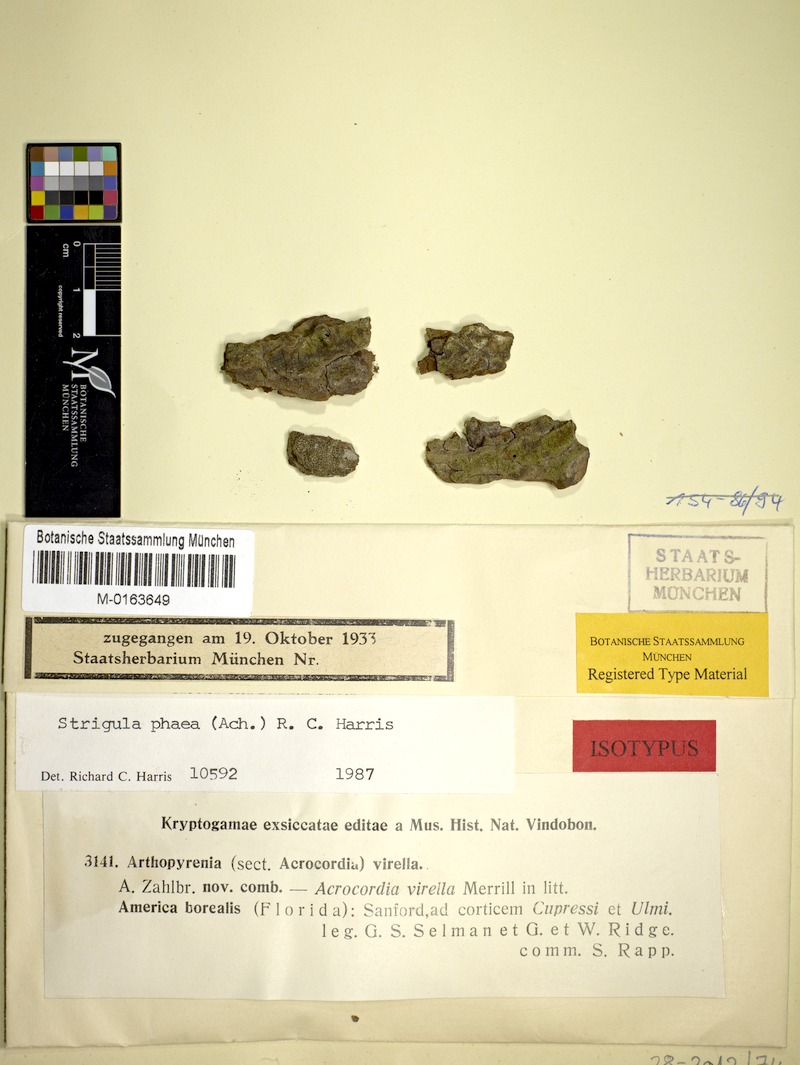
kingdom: Fungi
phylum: Ascomycota
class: Dothideomycetes
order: Strigulales
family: Strigulaceae
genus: Dichoporis
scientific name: Dichoporis phaea
